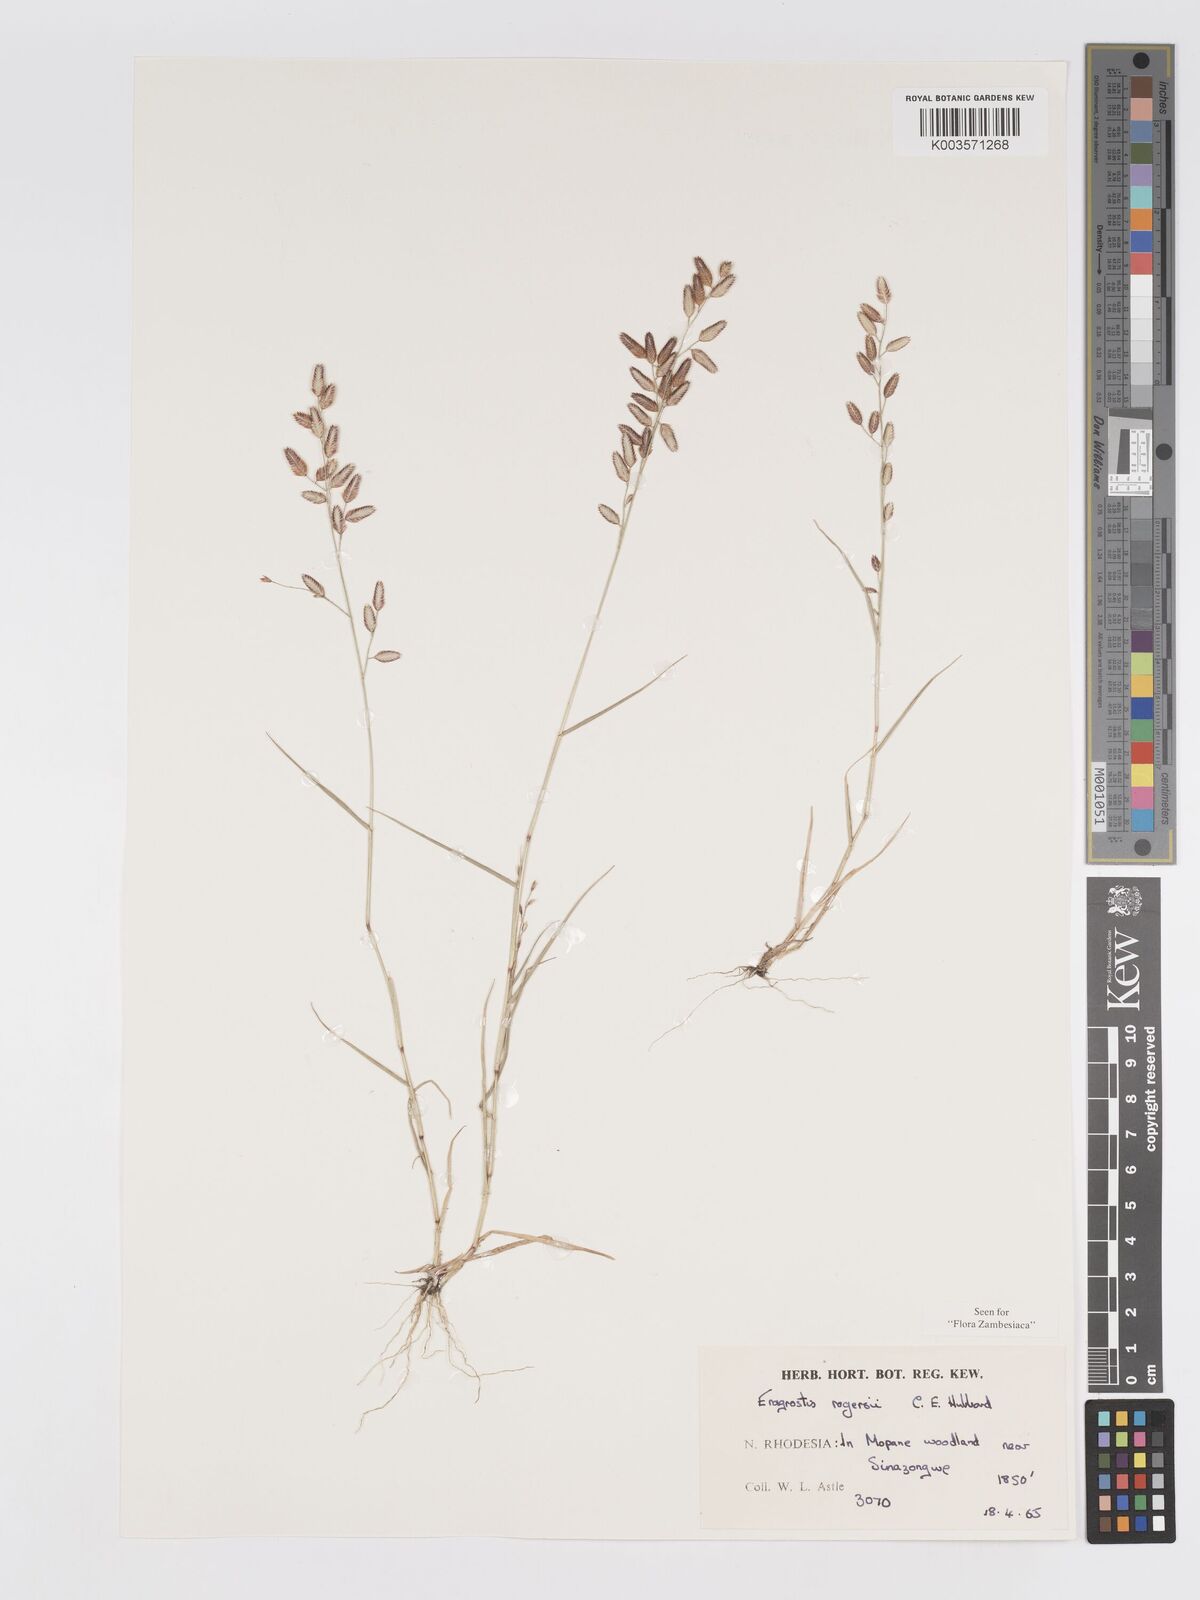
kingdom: Plantae
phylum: Tracheophyta
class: Liliopsida
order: Poales
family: Poaceae
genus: Eragrostis
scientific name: Eragrostis rogersii
